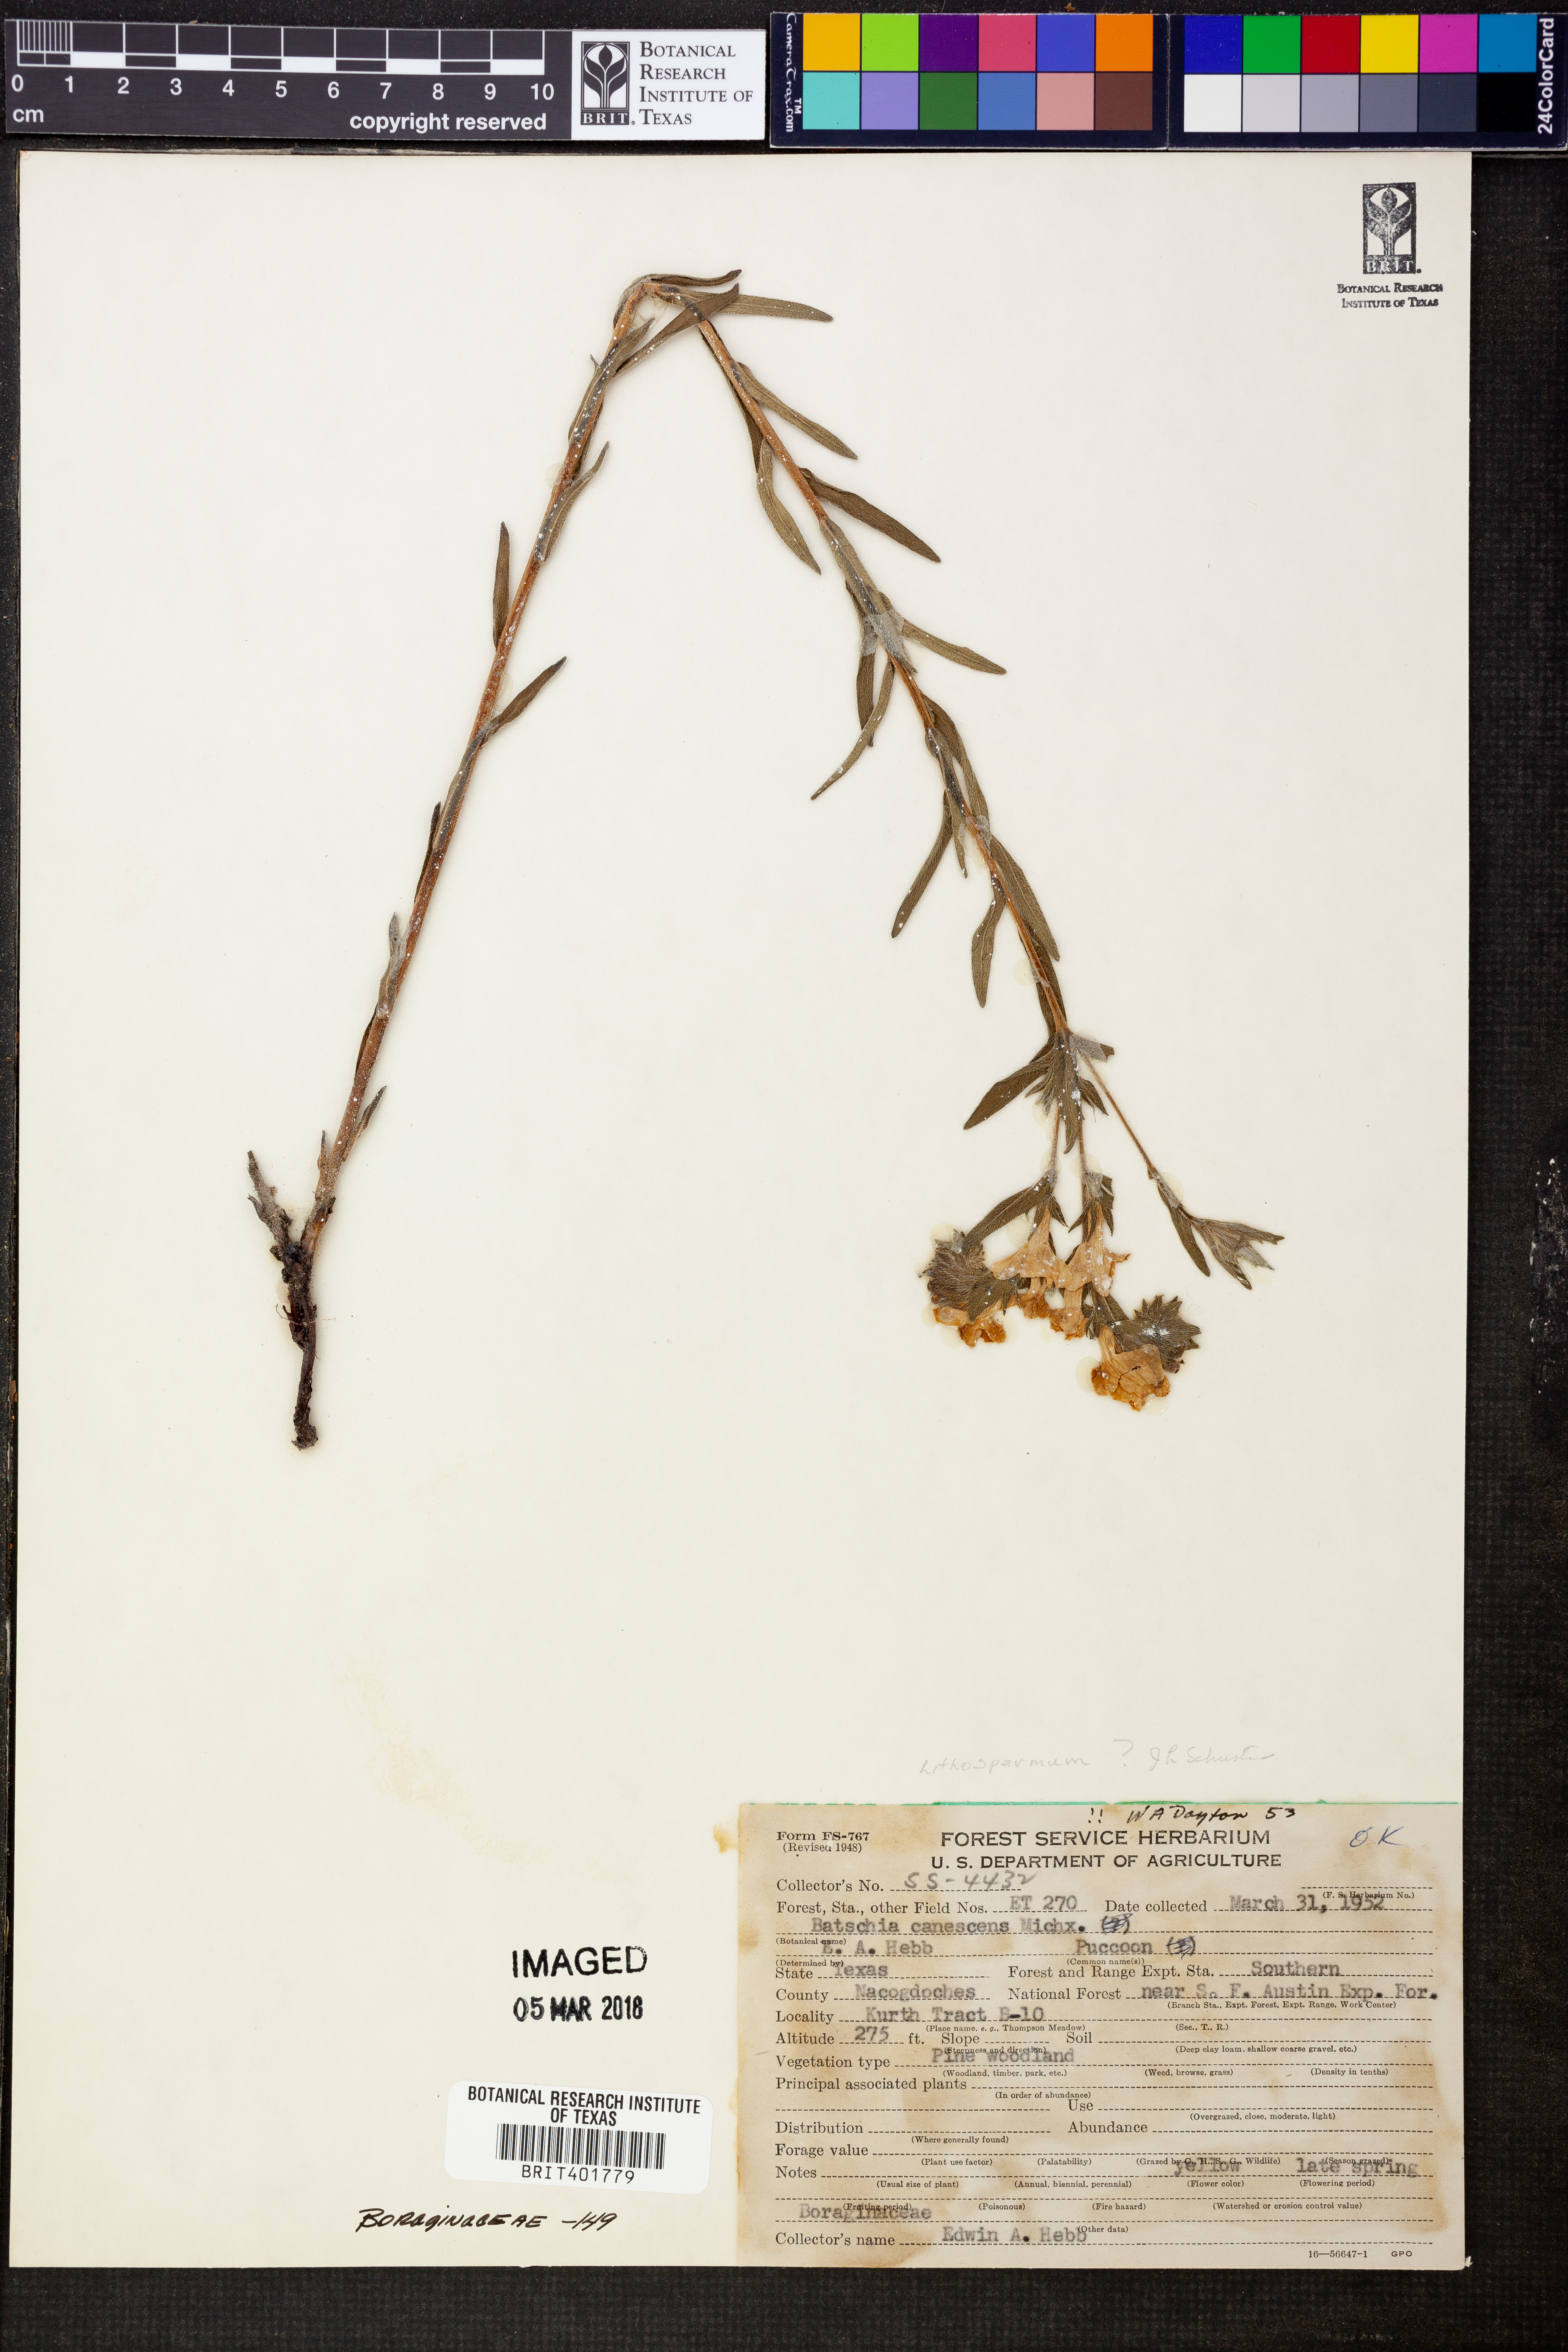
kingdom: Plantae
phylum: Tracheophyta
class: Magnoliopsida
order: Boraginales
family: Boraginaceae
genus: Lithospermum
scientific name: Lithospermum
